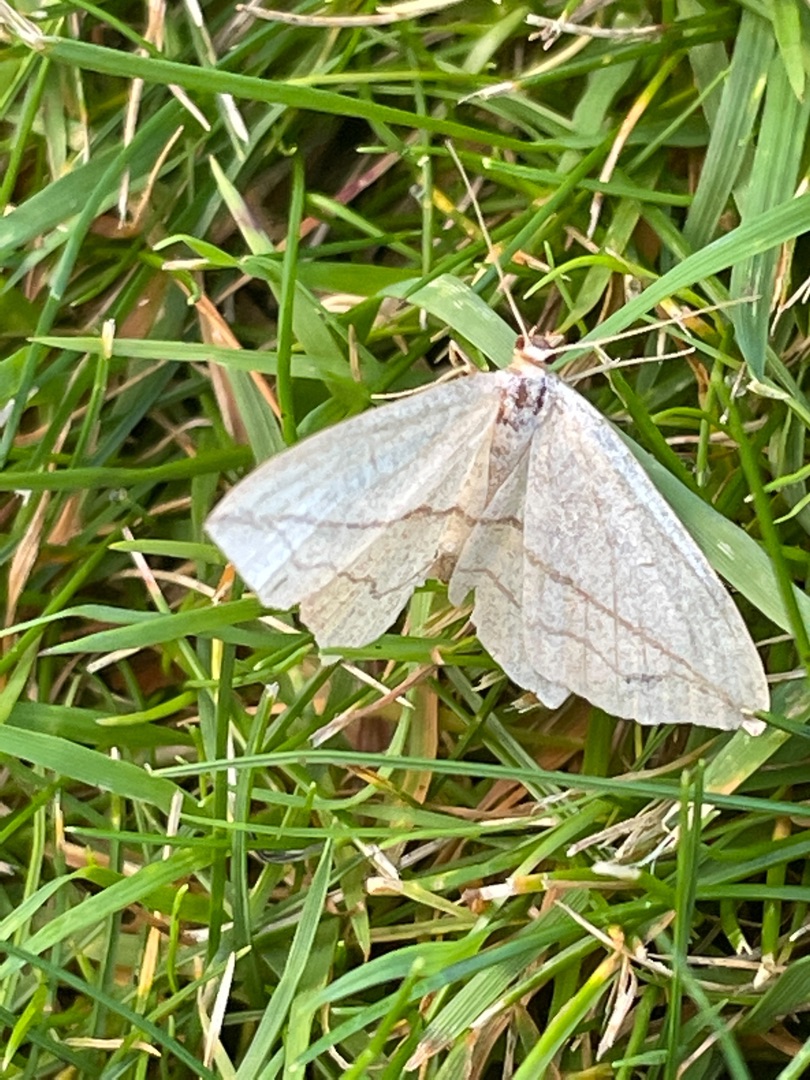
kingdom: Animalia
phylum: Arthropoda
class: Insecta
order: Lepidoptera
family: Geometridae
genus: Timandra
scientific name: Timandra griseata
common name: Syremåler
